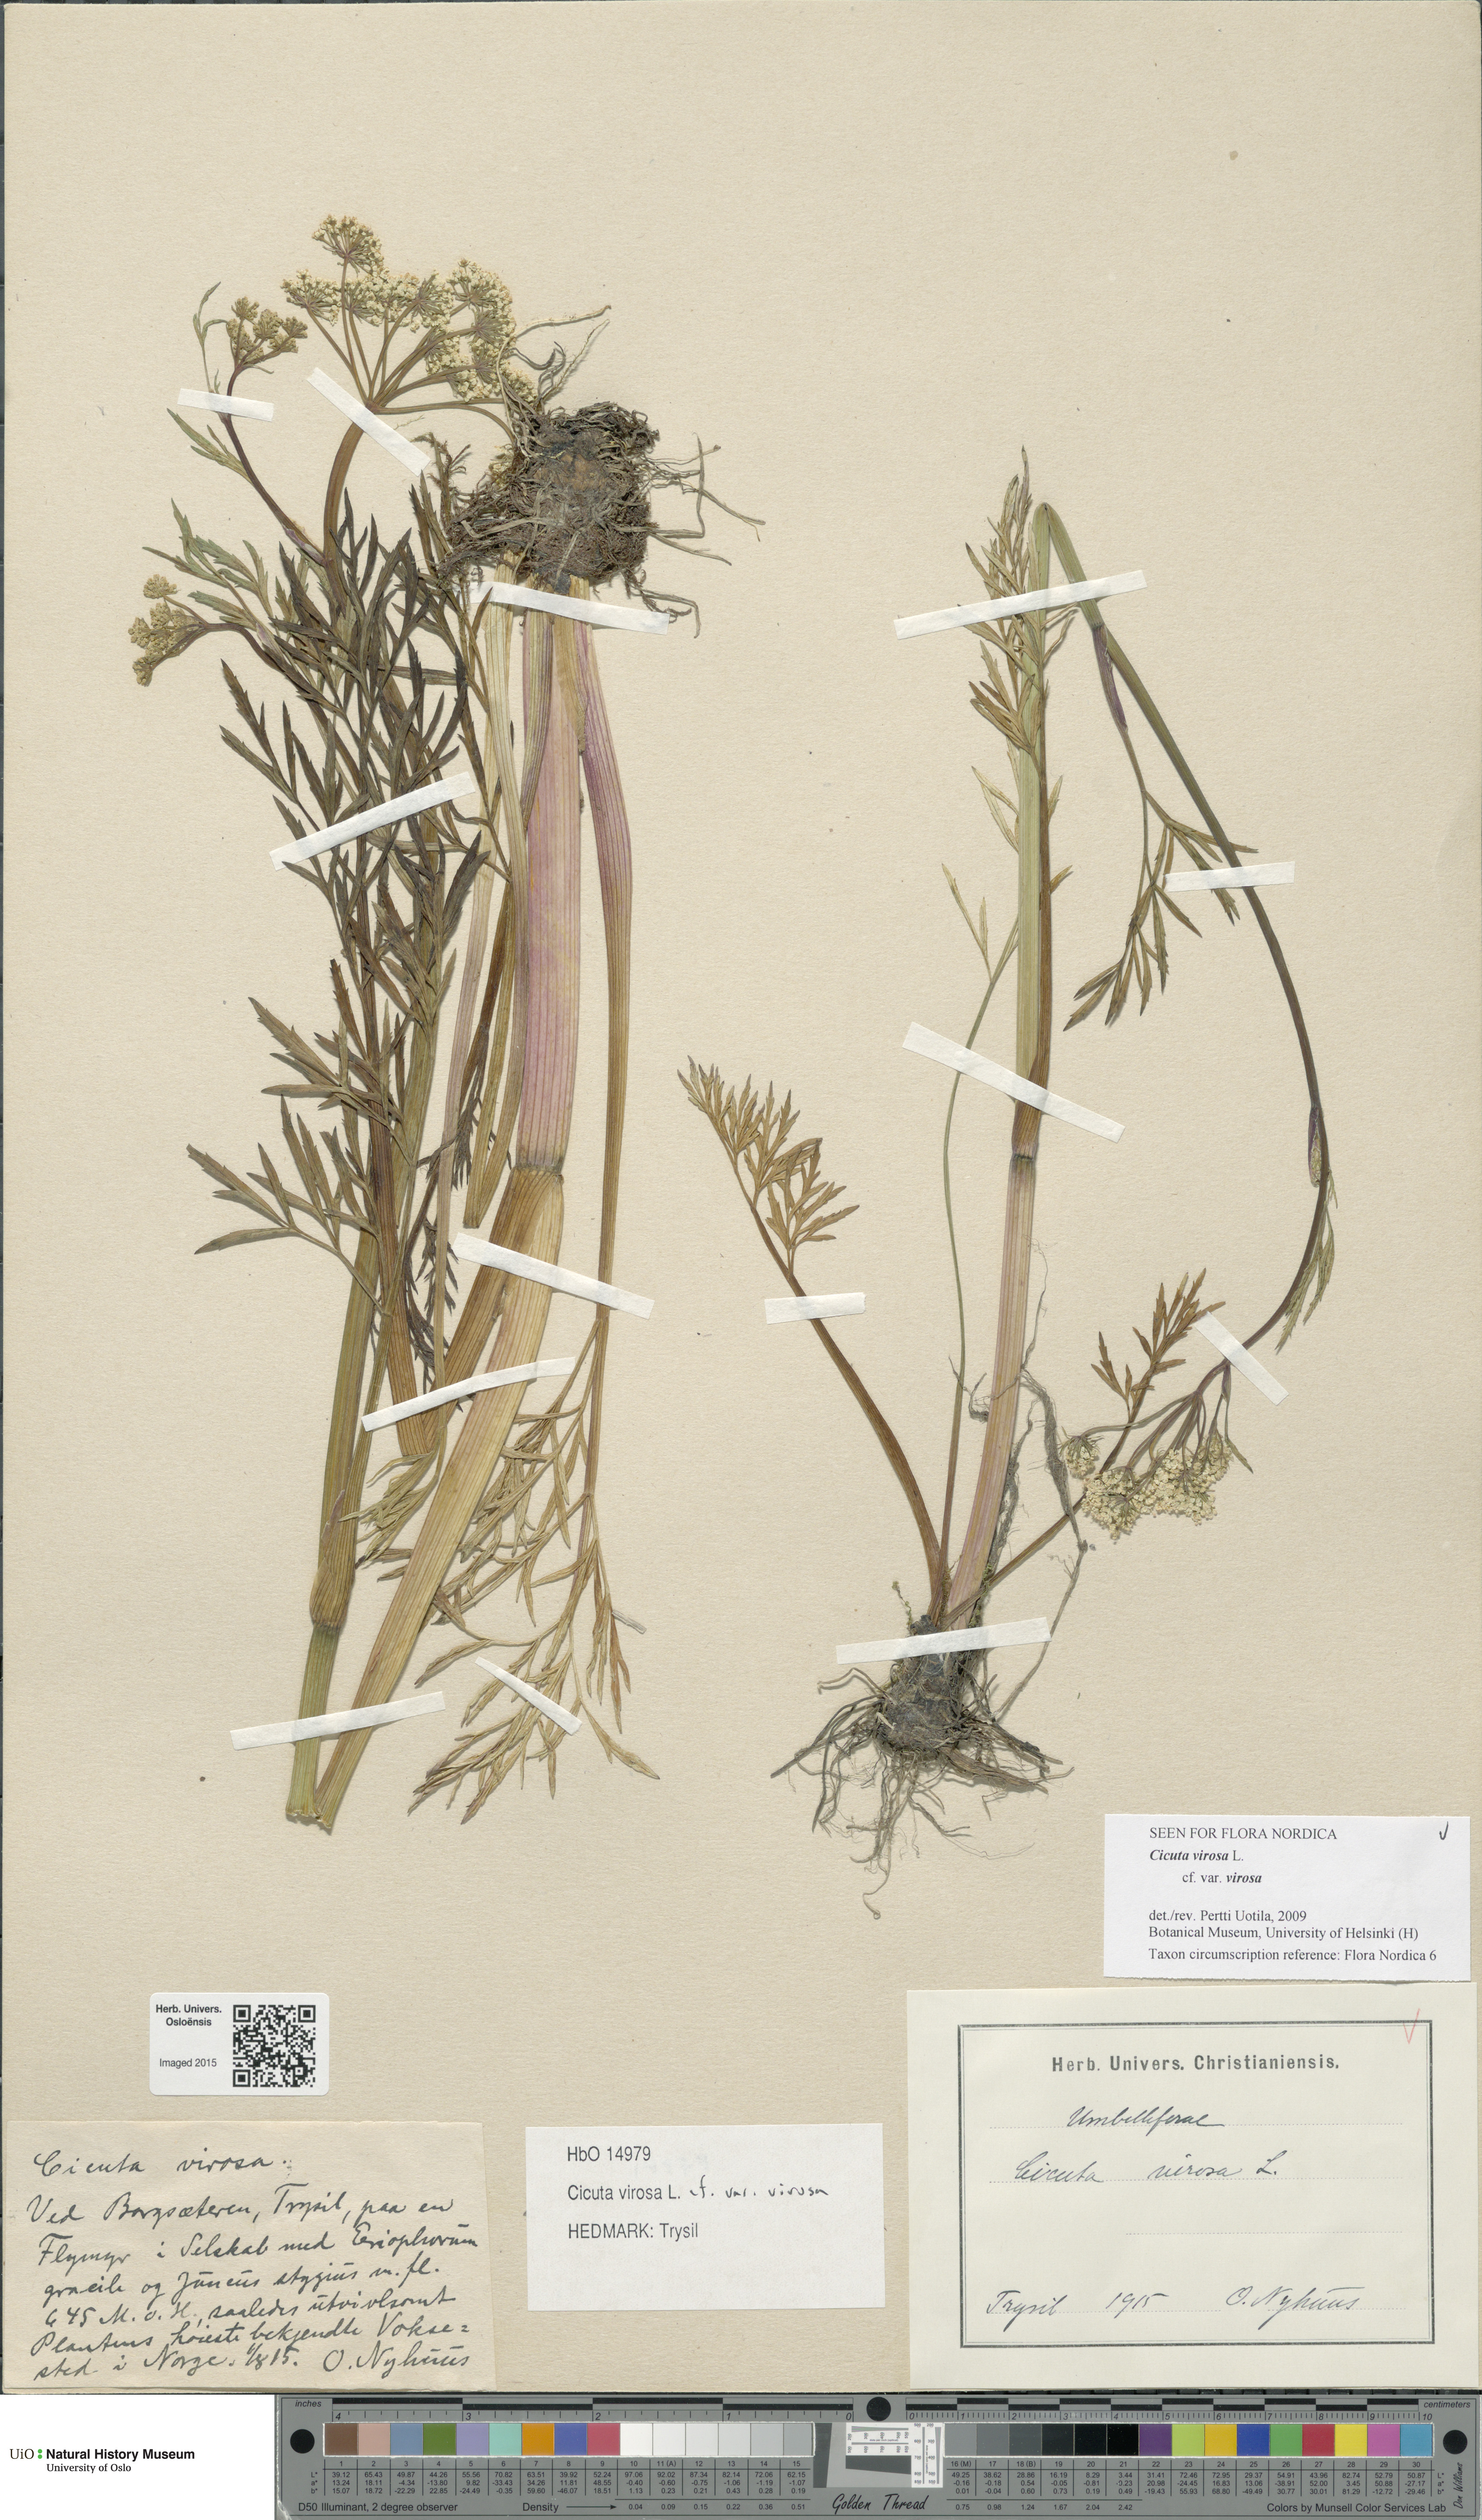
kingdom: Plantae
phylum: Tracheophyta
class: Magnoliopsida
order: Apiales
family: Apiaceae
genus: Cicuta
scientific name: Cicuta virosa
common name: Cowbane
